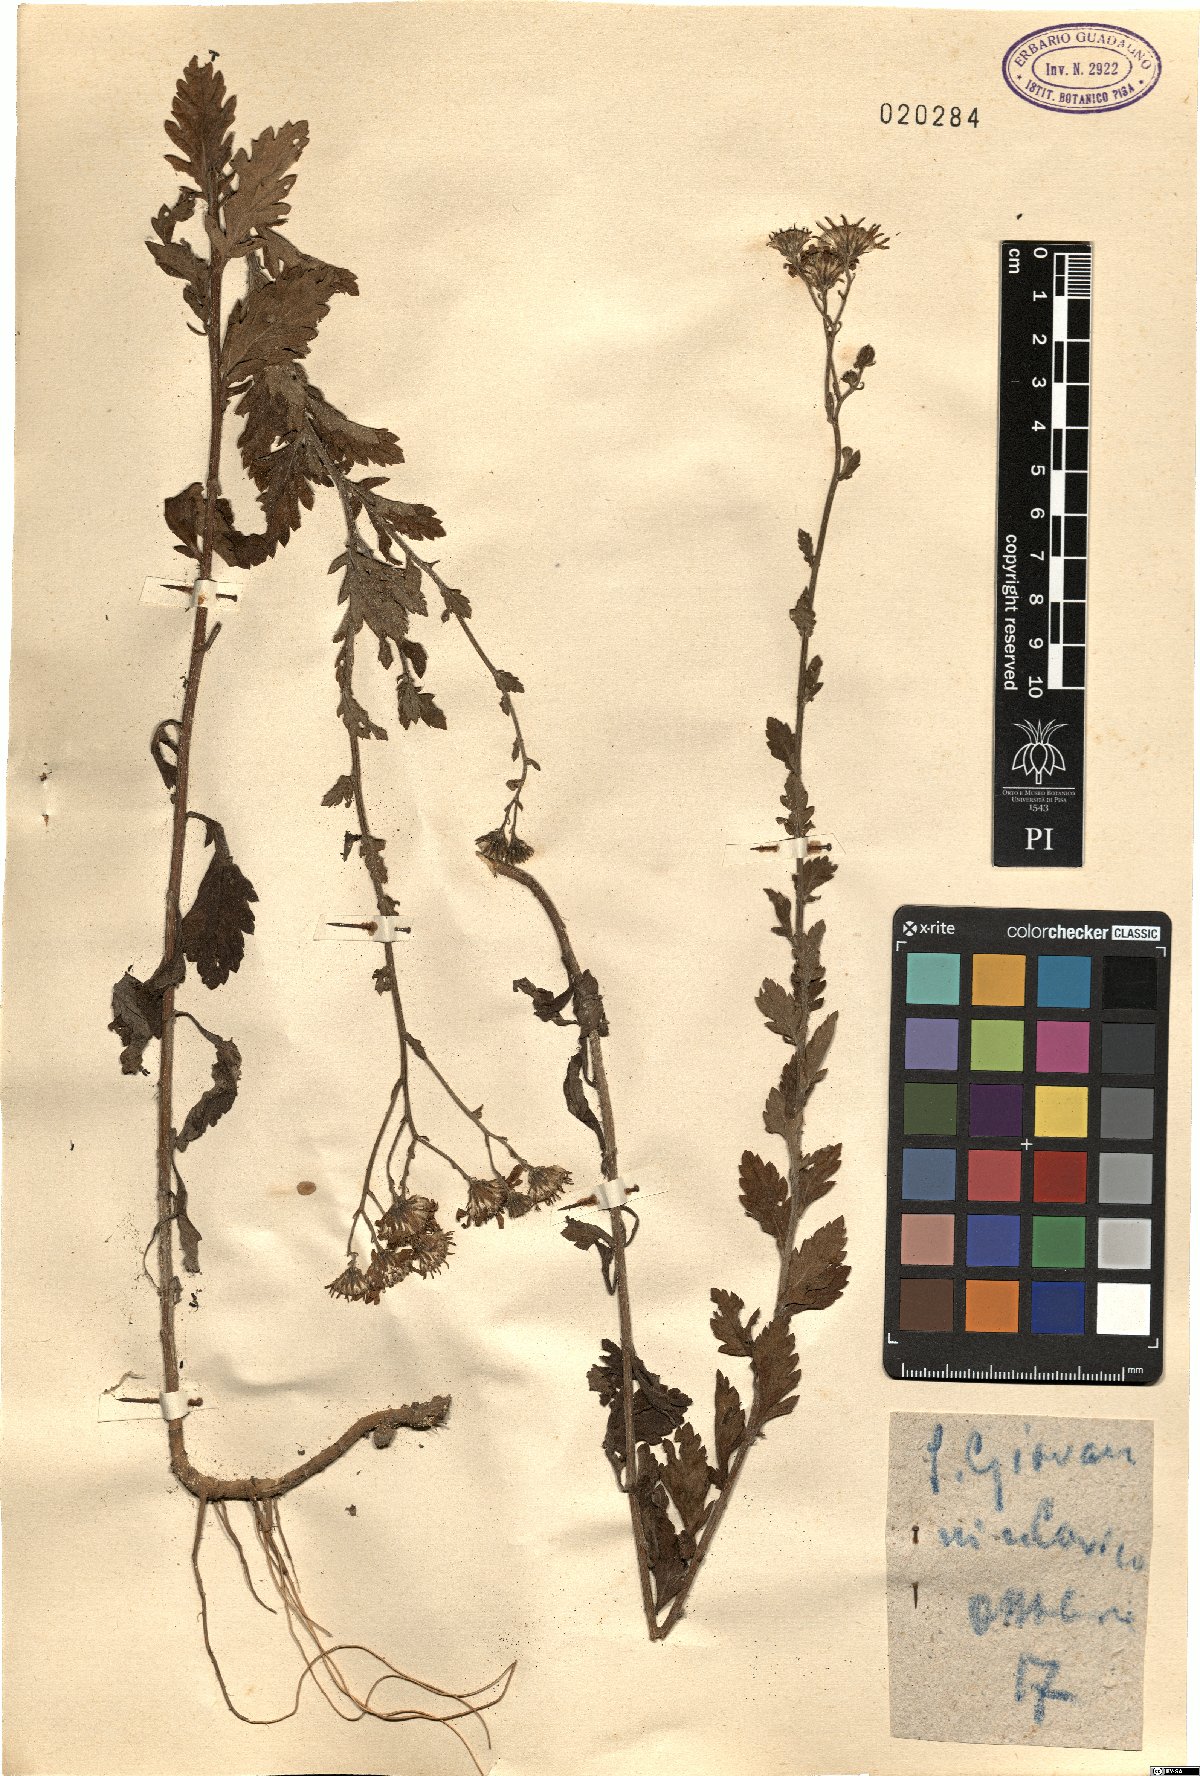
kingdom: Plantae
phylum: Tracheophyta
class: Magnoliopsida
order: Asterales
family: Asteraceae
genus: Senecio
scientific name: Senecio
